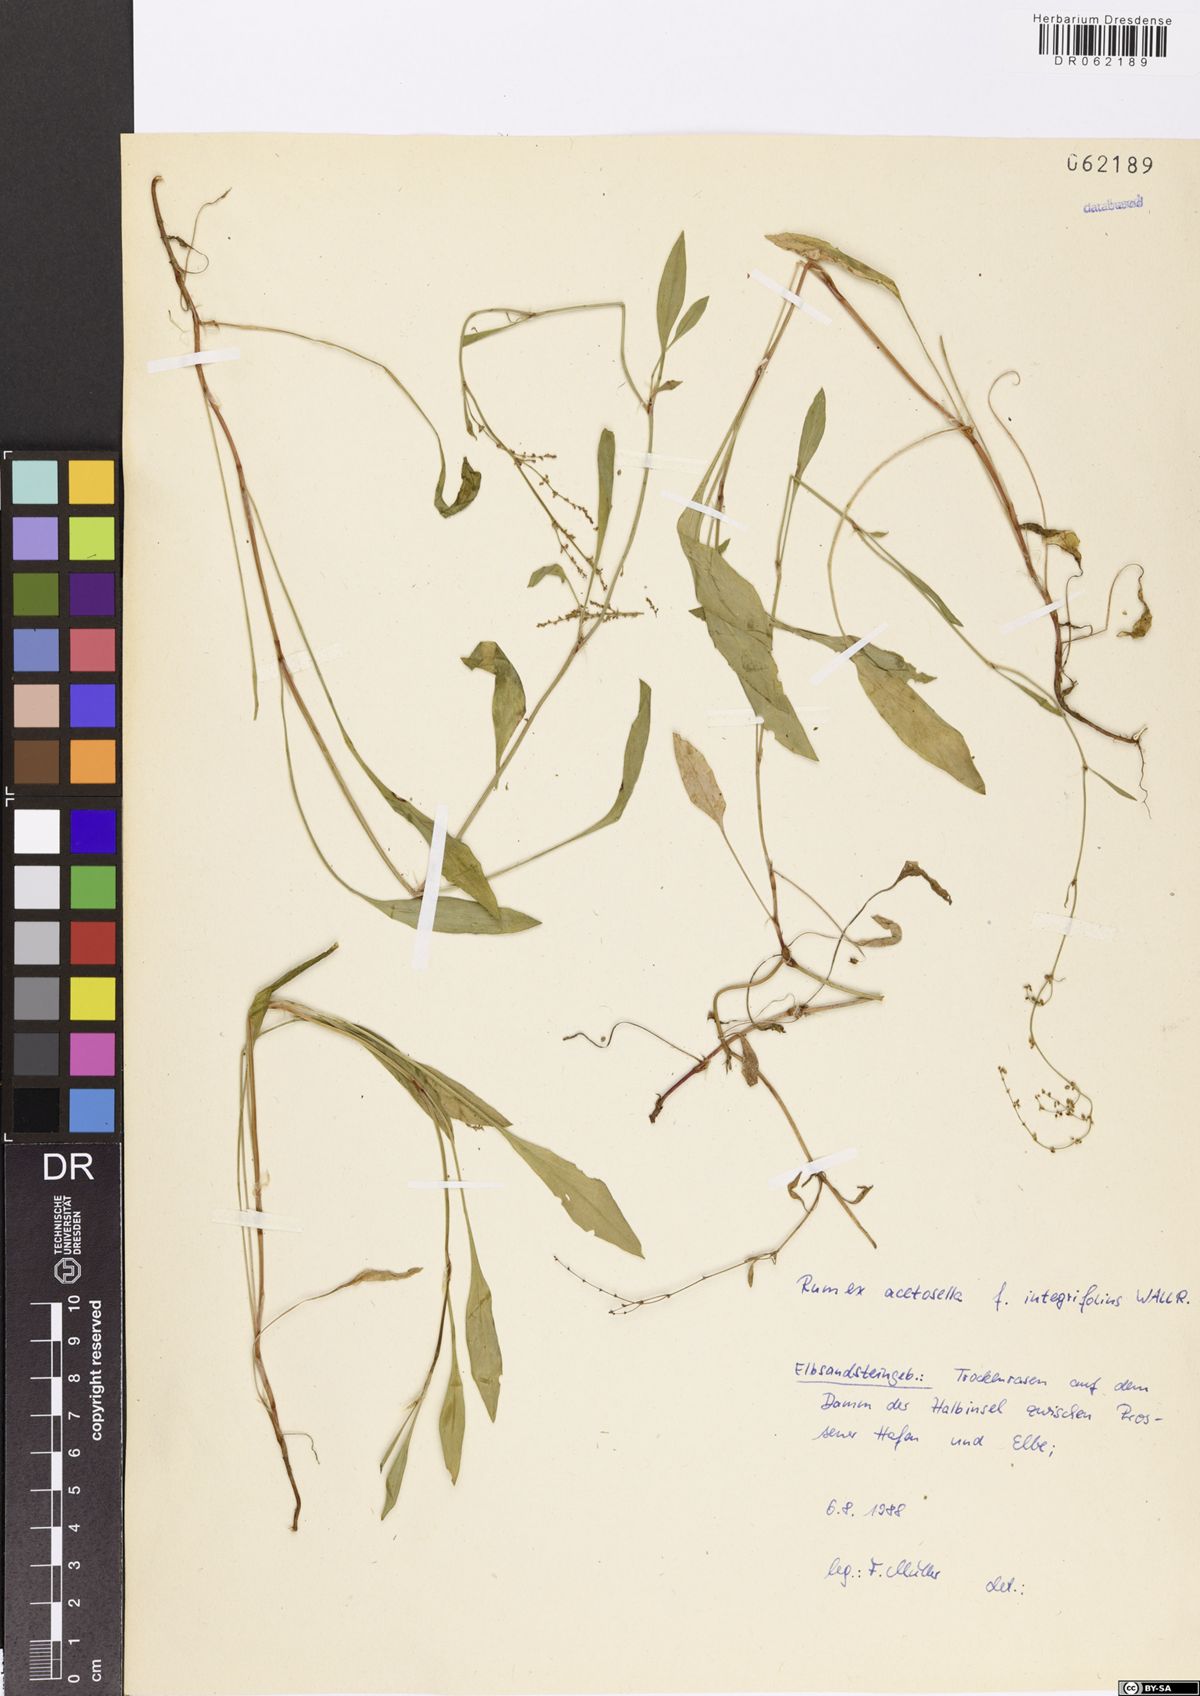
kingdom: Plantae
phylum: Tracheophyta
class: Magnoliopsida
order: Caryophyllales
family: Polygonaceae
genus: Rumex
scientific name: Rumex acetosella
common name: Common sheep sorrel
